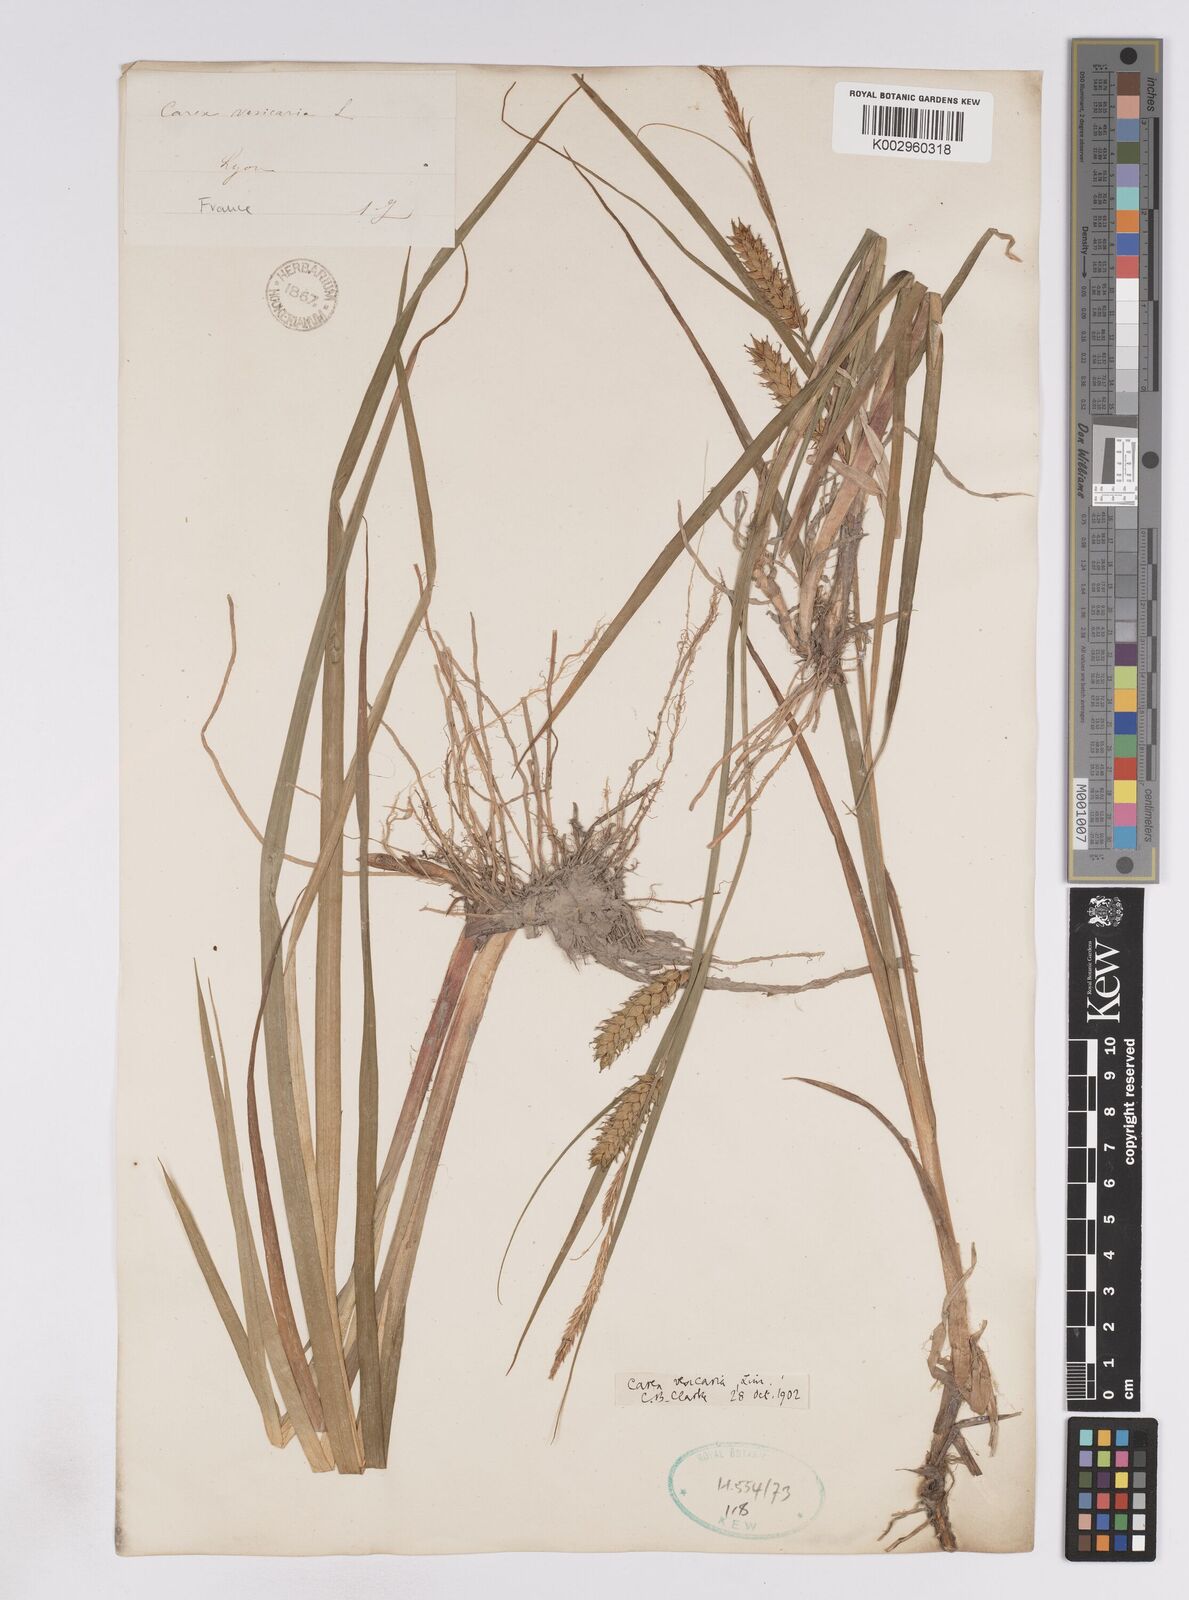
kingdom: Plantae
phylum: Tracheophyta
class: Liliopsida
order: Poales
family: Cyperaceae
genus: Carex
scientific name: Carex vesicaria
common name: Bladder-sedge
